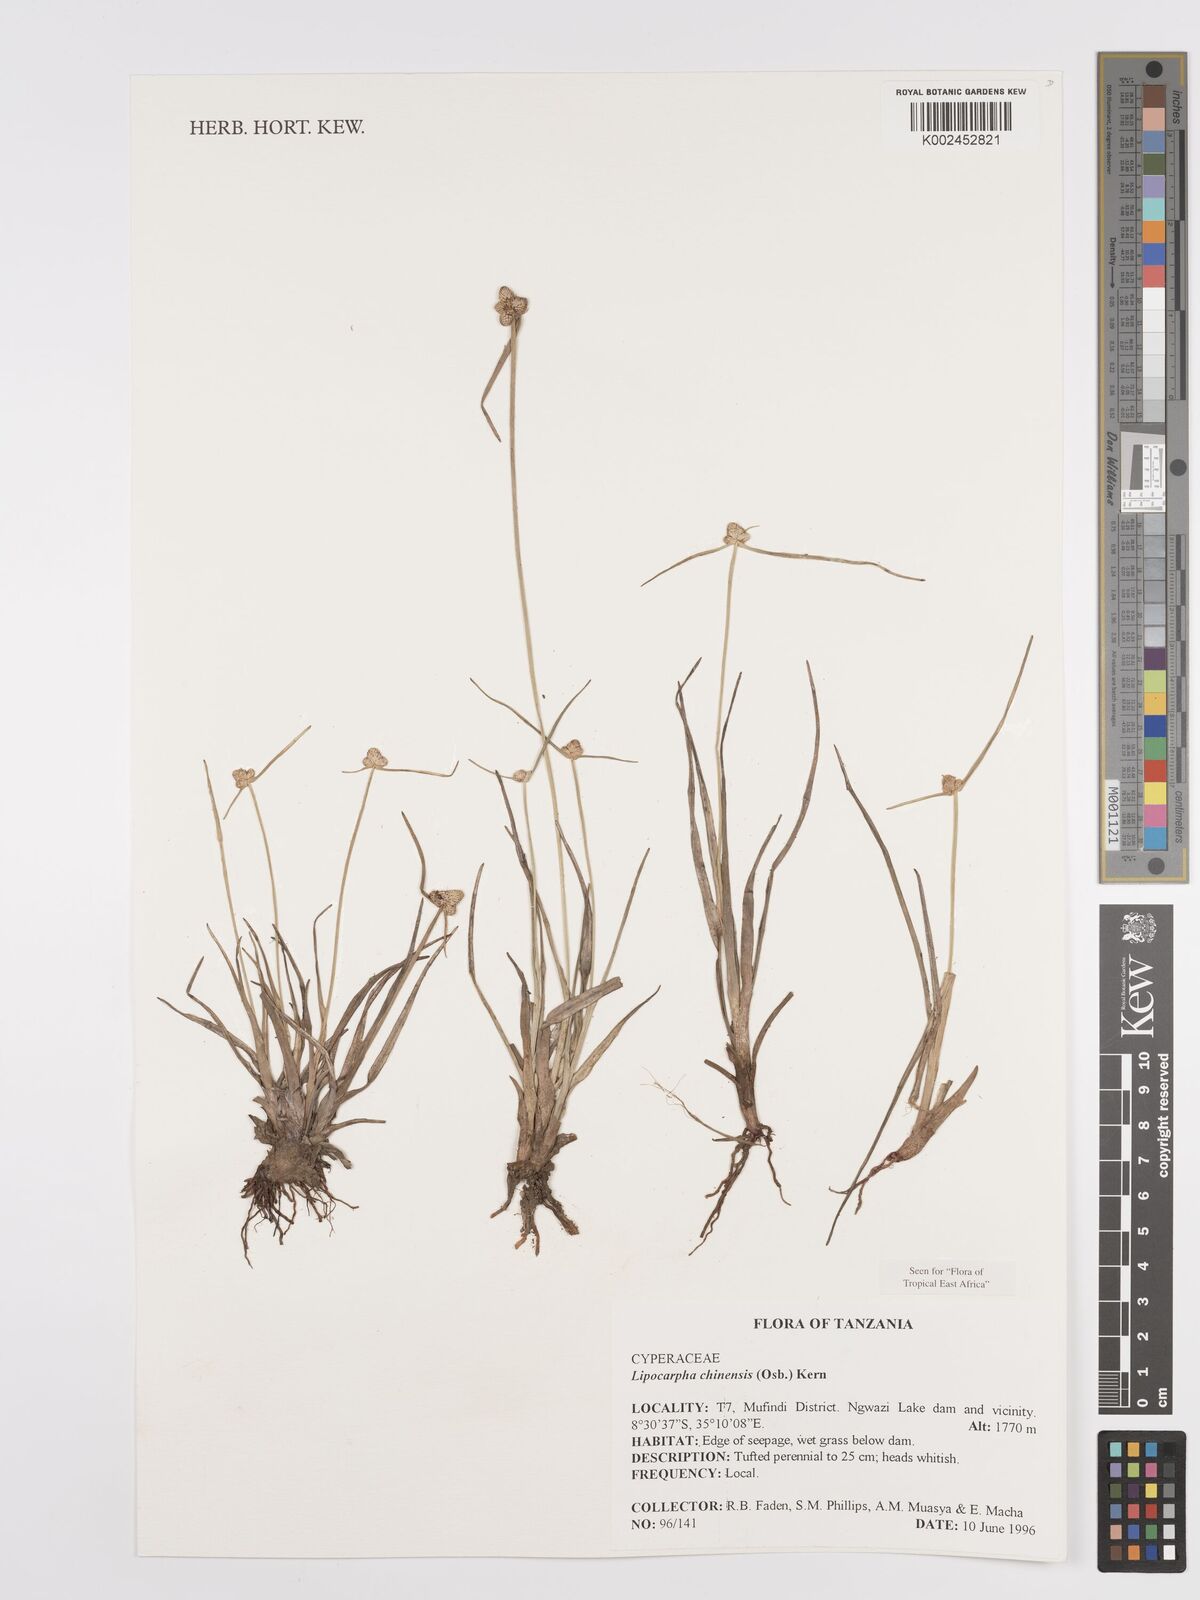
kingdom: Plantae
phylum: Tracheophyta
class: Liliopsida
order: Poales
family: Cyperaceae
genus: Cyperus
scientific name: Cyperus
